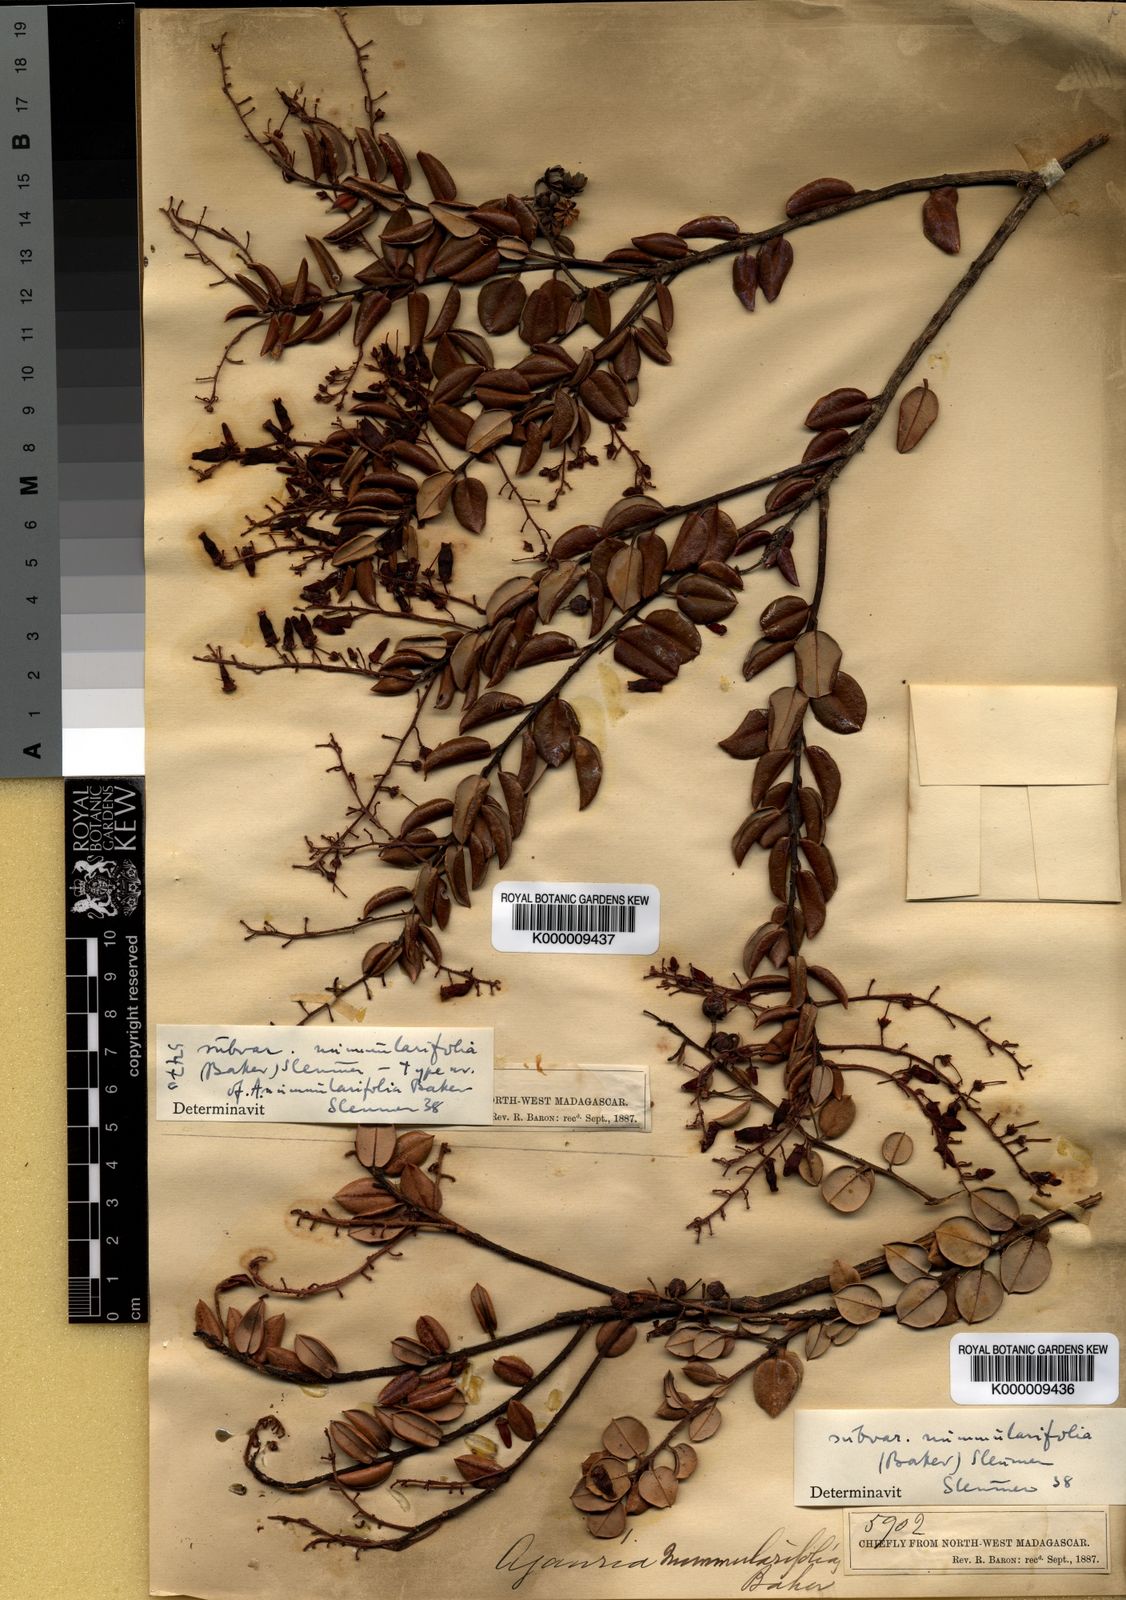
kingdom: Plantae
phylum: Tracheophyta
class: Magnoliopsida
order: Ericales
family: Ericaceae
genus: Agarista
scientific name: Agarista salicifolia
